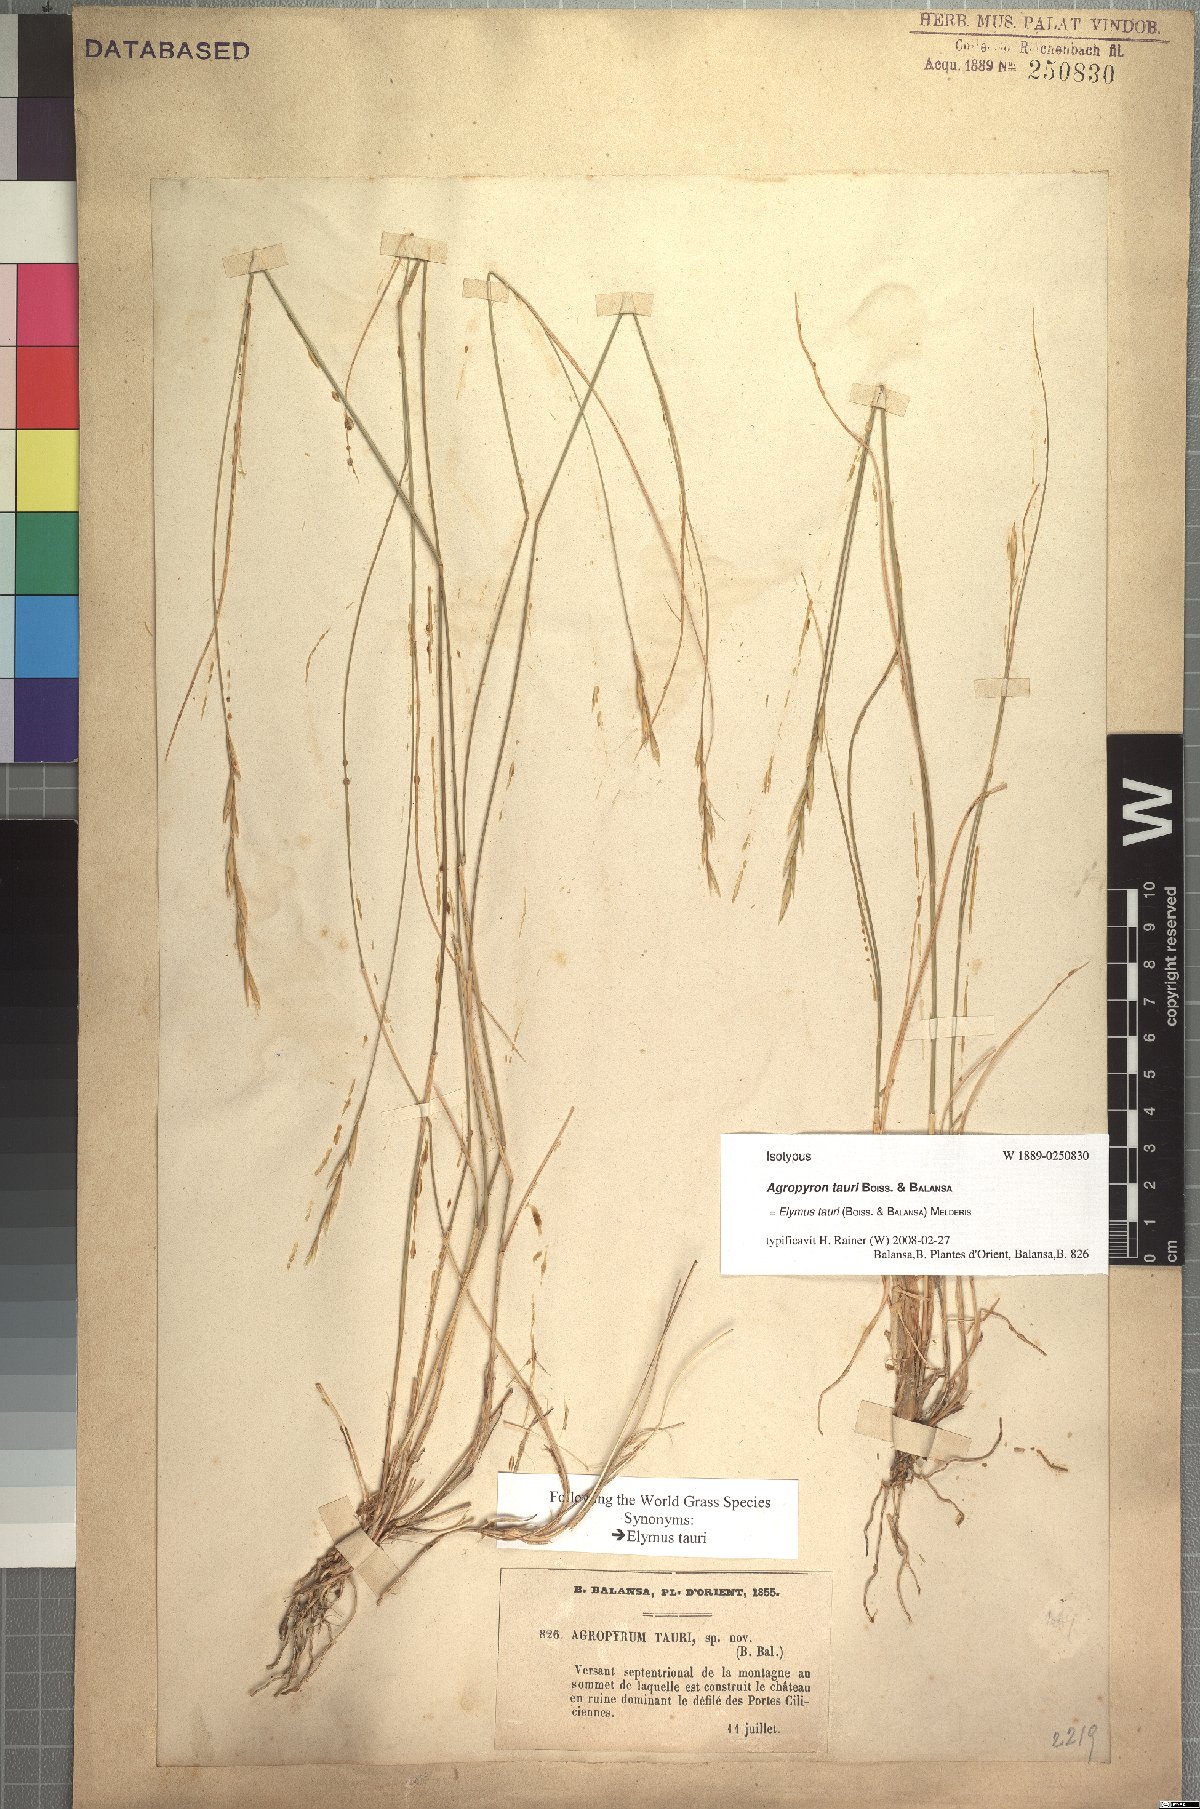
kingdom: Plantae
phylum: Tracheophyta
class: Liliopsida
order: Poales
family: Poaceae
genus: Pseudoroegneria
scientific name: Pseudoroegneria tauri
